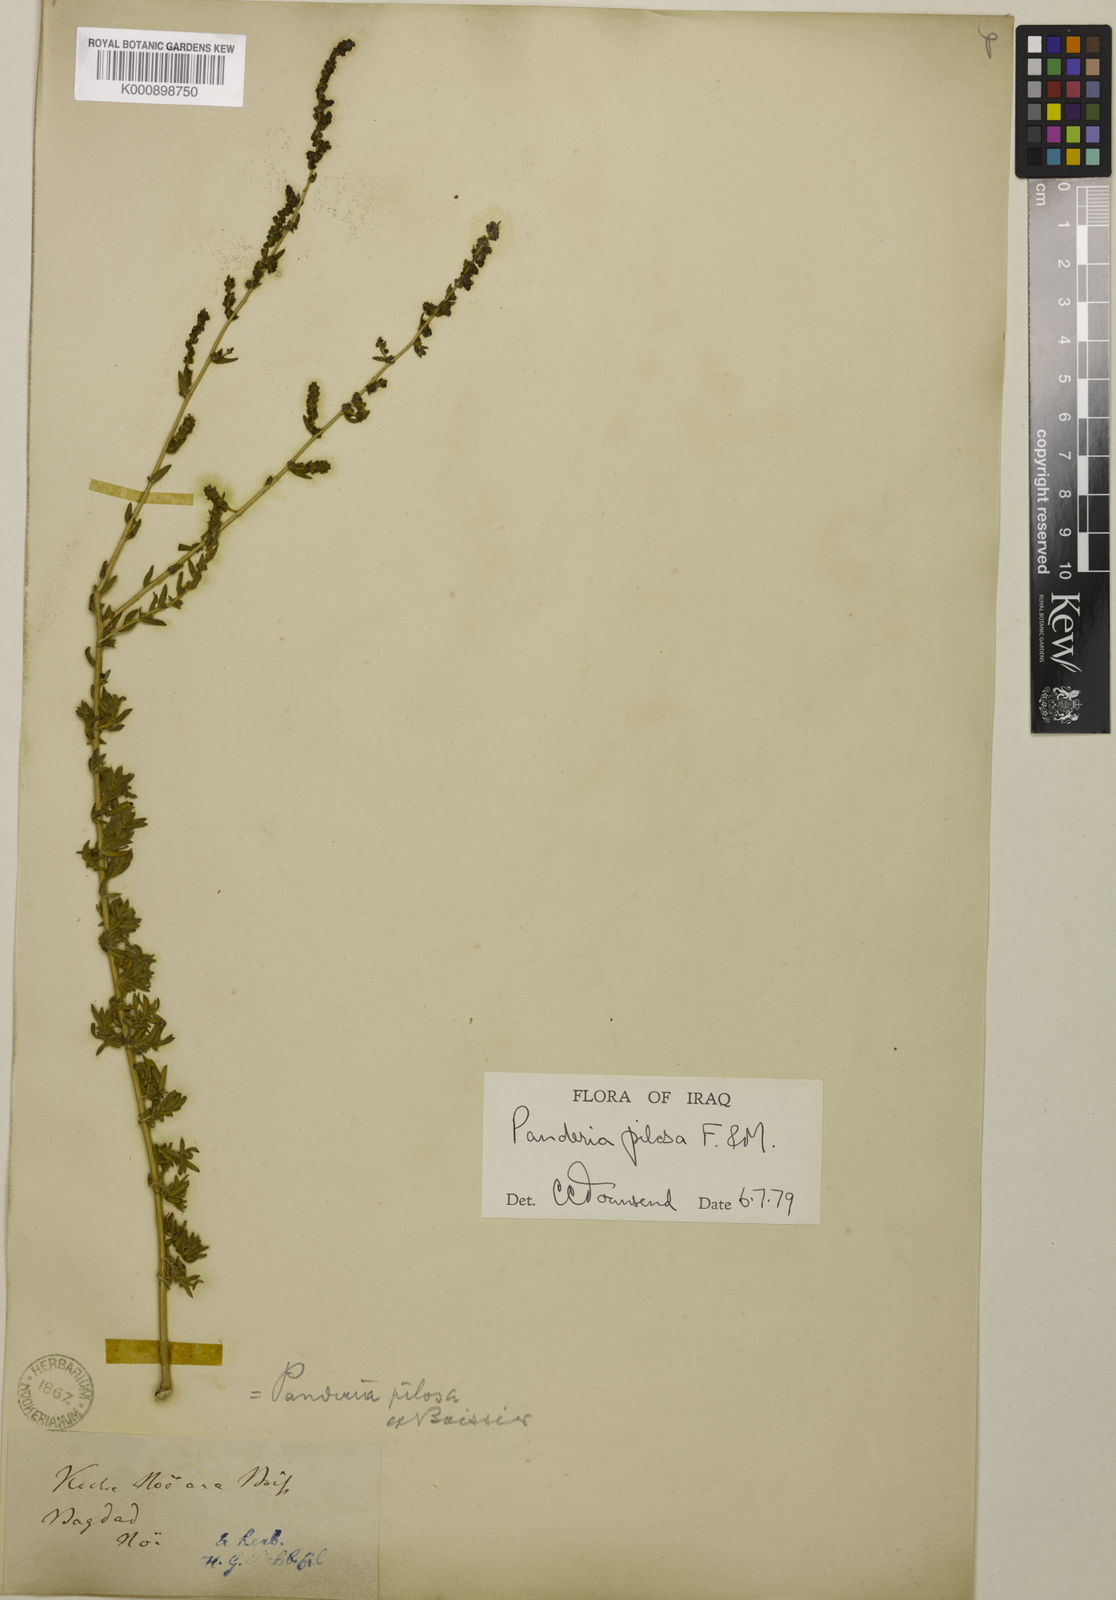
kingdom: Plantae
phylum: Tracheophyta
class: Magnoliopsida
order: Caryophyllales
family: Amaranthaceae
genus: Bassia
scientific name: Bassia stellaris
